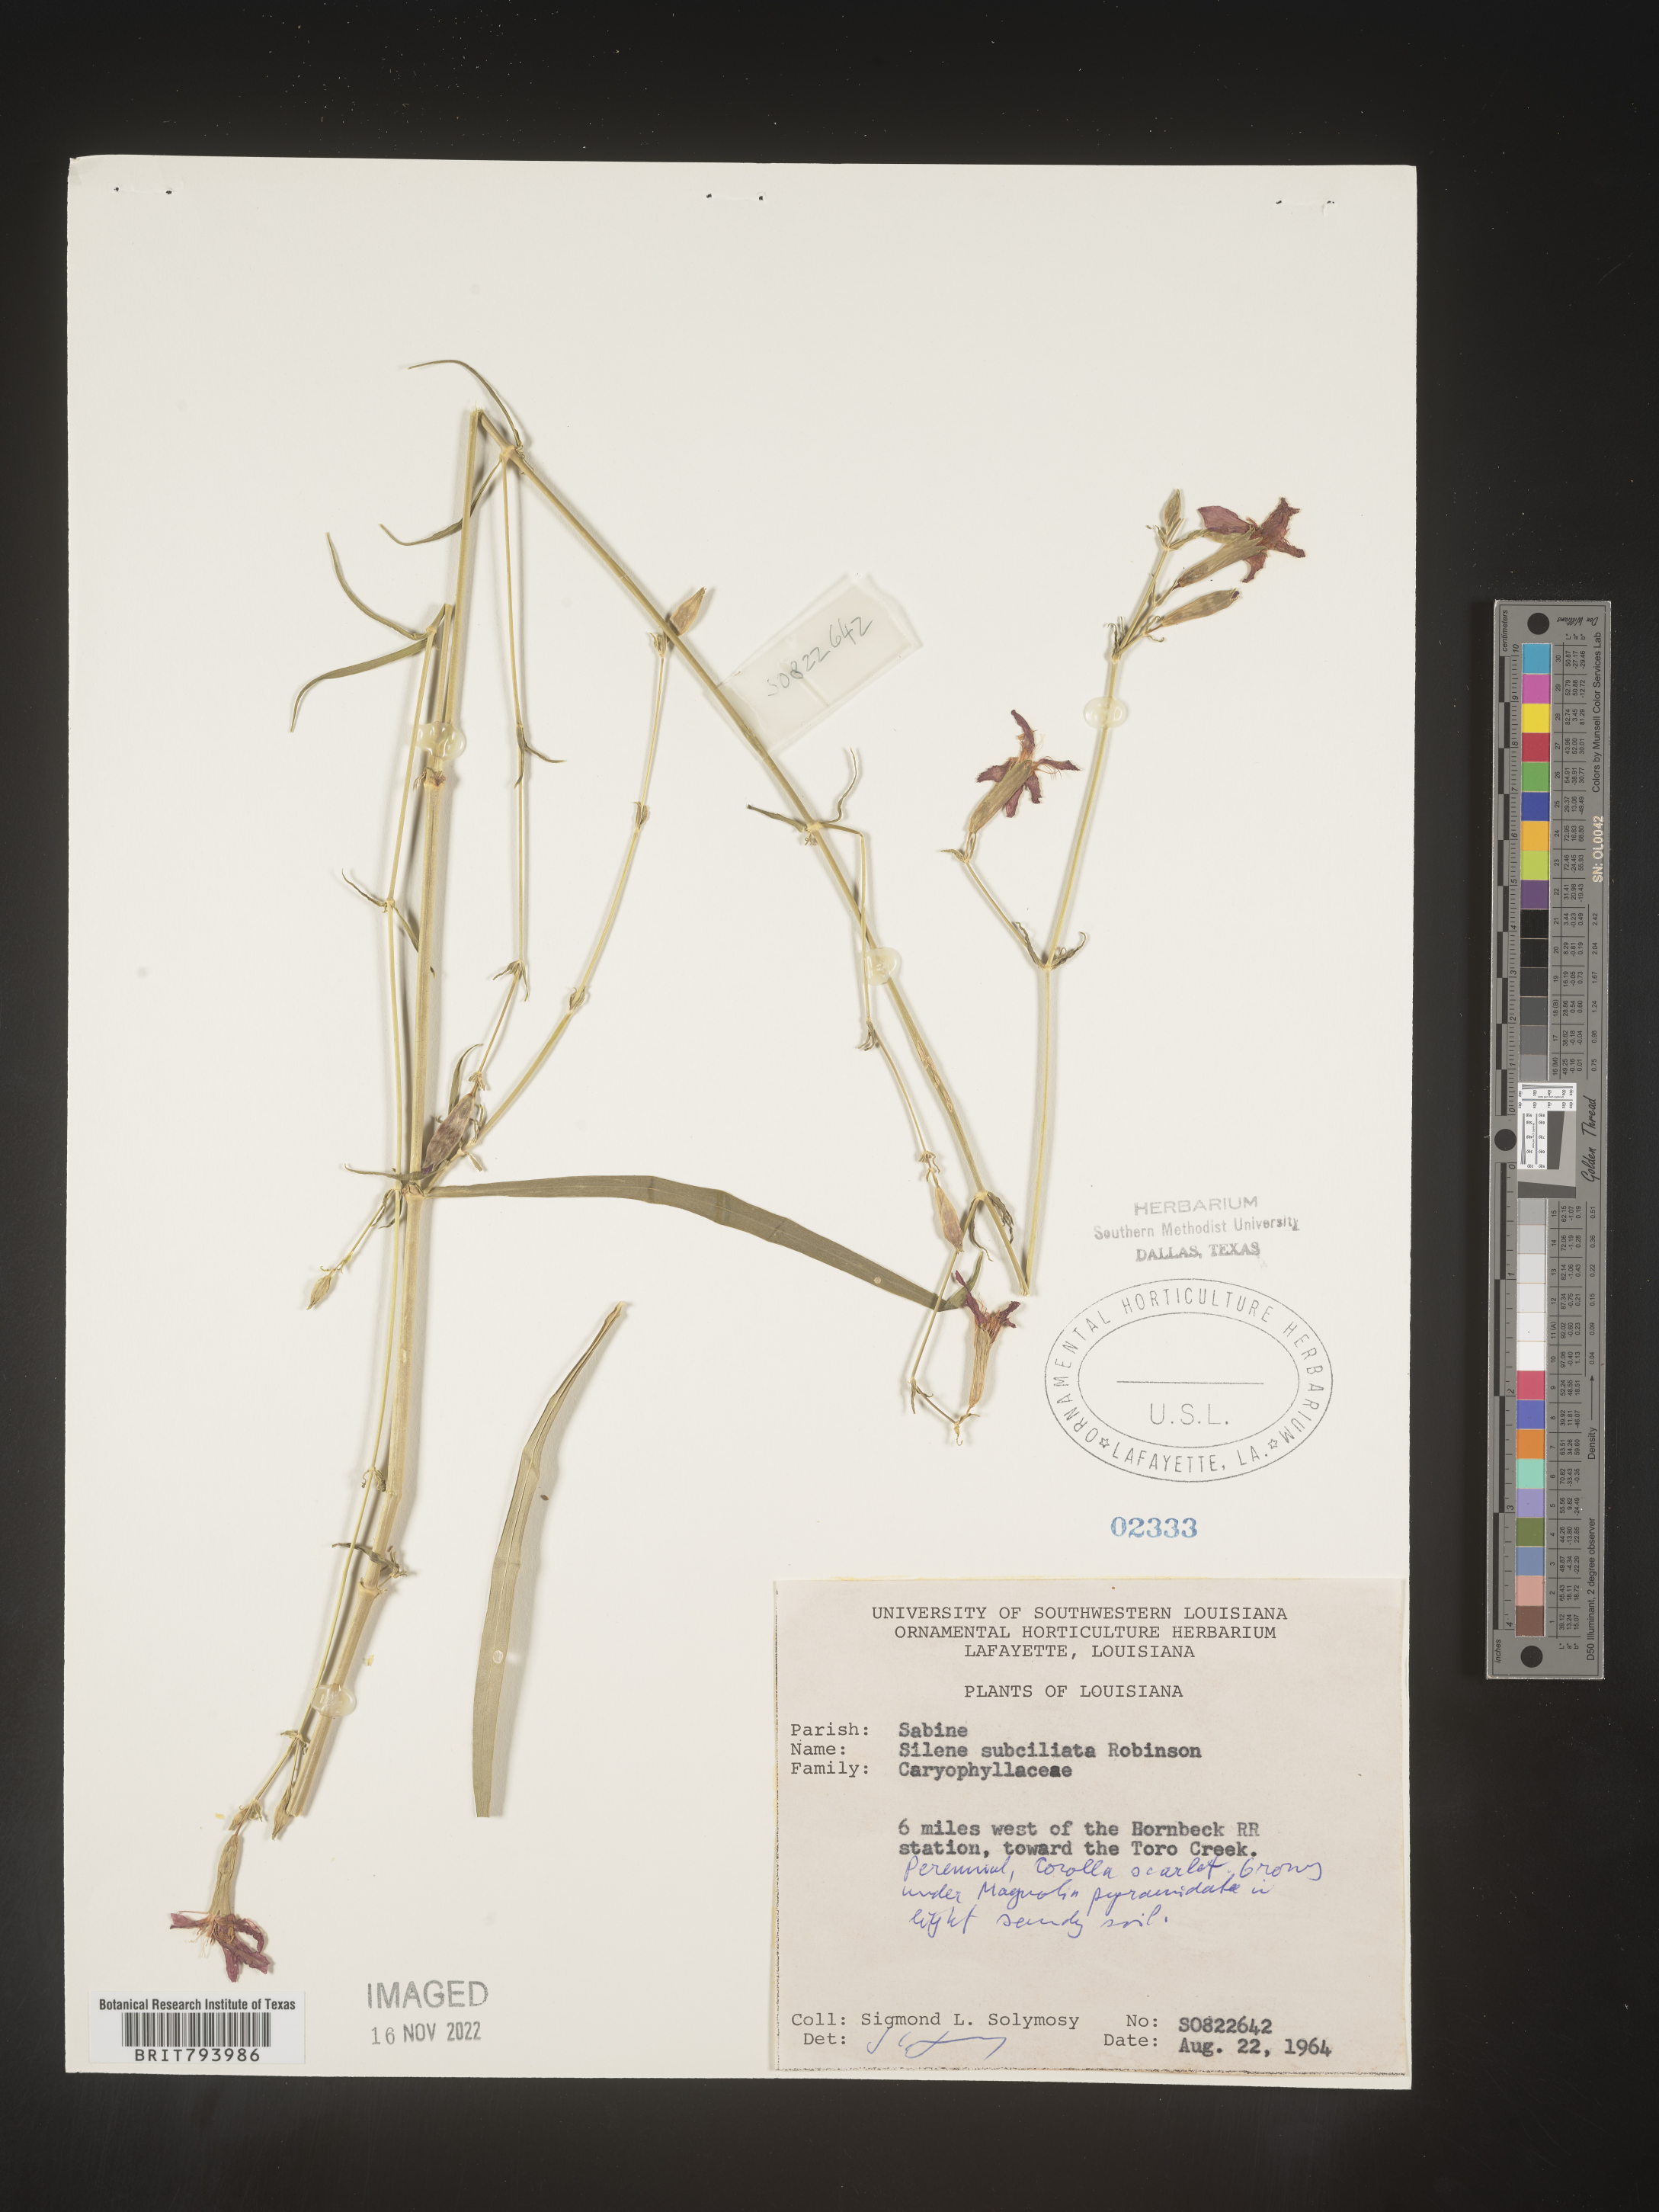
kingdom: Plantae
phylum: Tracheophyta
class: Magnoliopsida
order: Caryophyllales
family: Caryophyllaceae
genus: Silene
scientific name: Silene subciliata
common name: Prairie fire-pink
